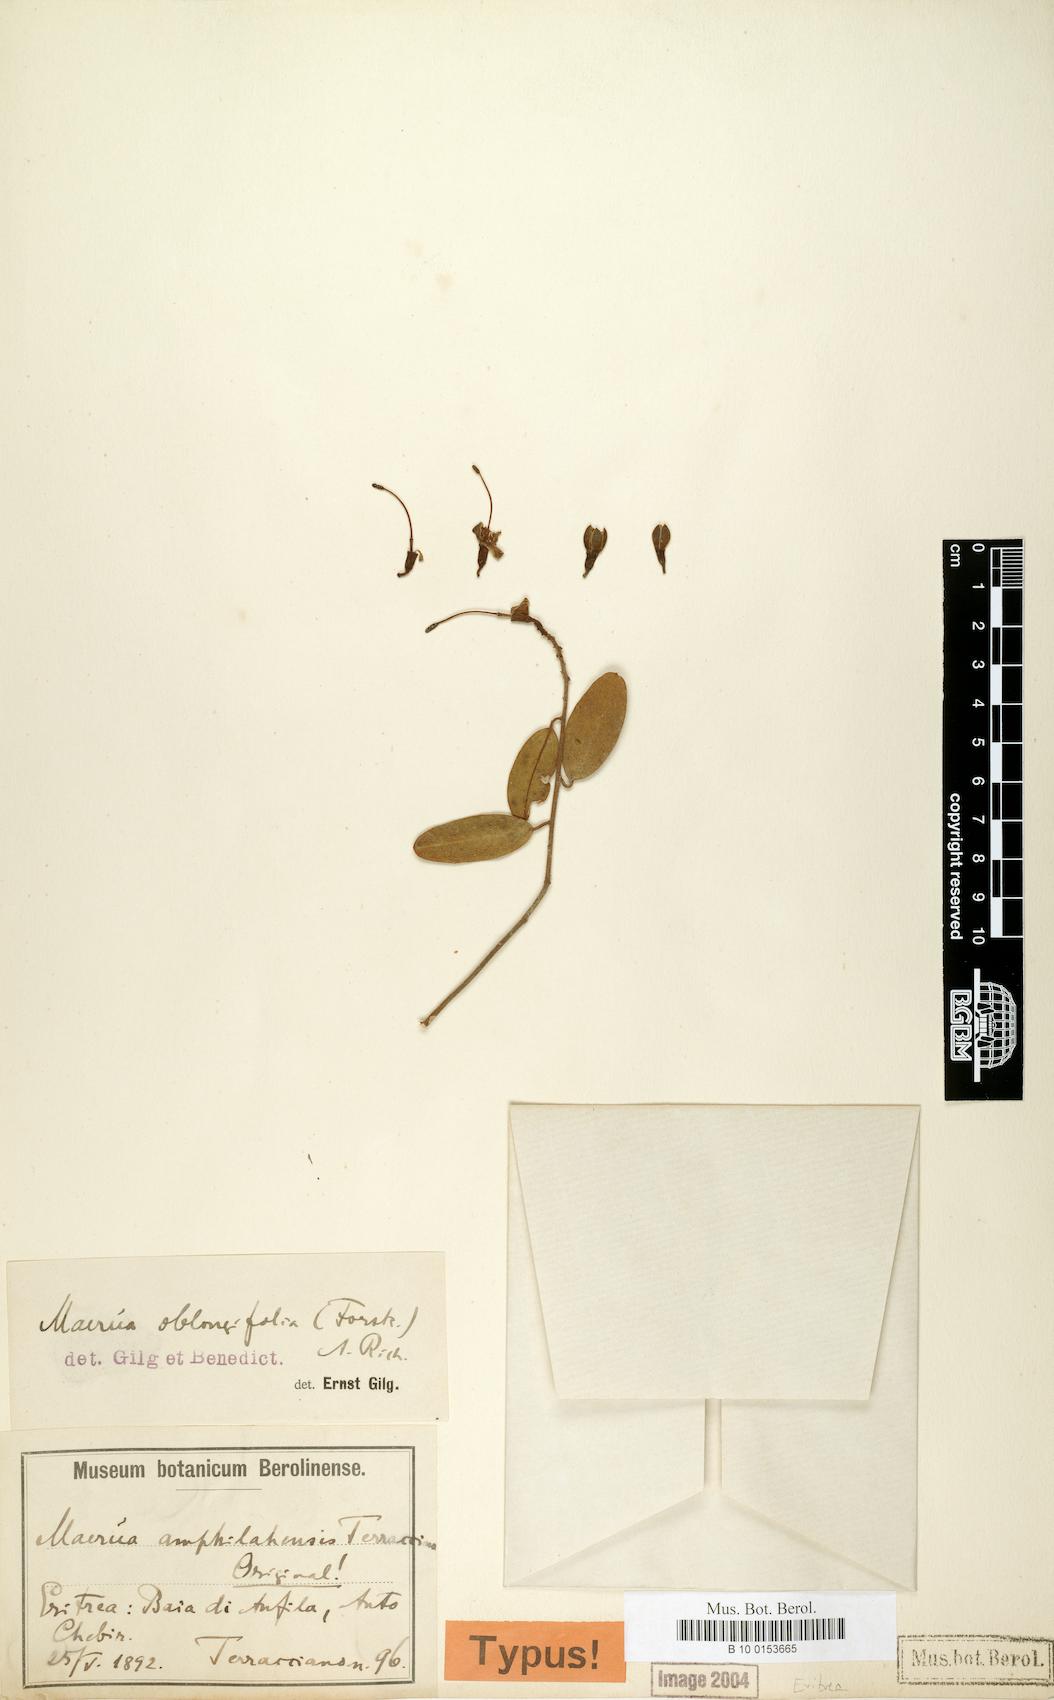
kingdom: Plantae
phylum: Tracheophyta
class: Magnoliopsida
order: Brassicales
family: Capparaceae
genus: Maerua
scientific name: Maerua oblongifolia
